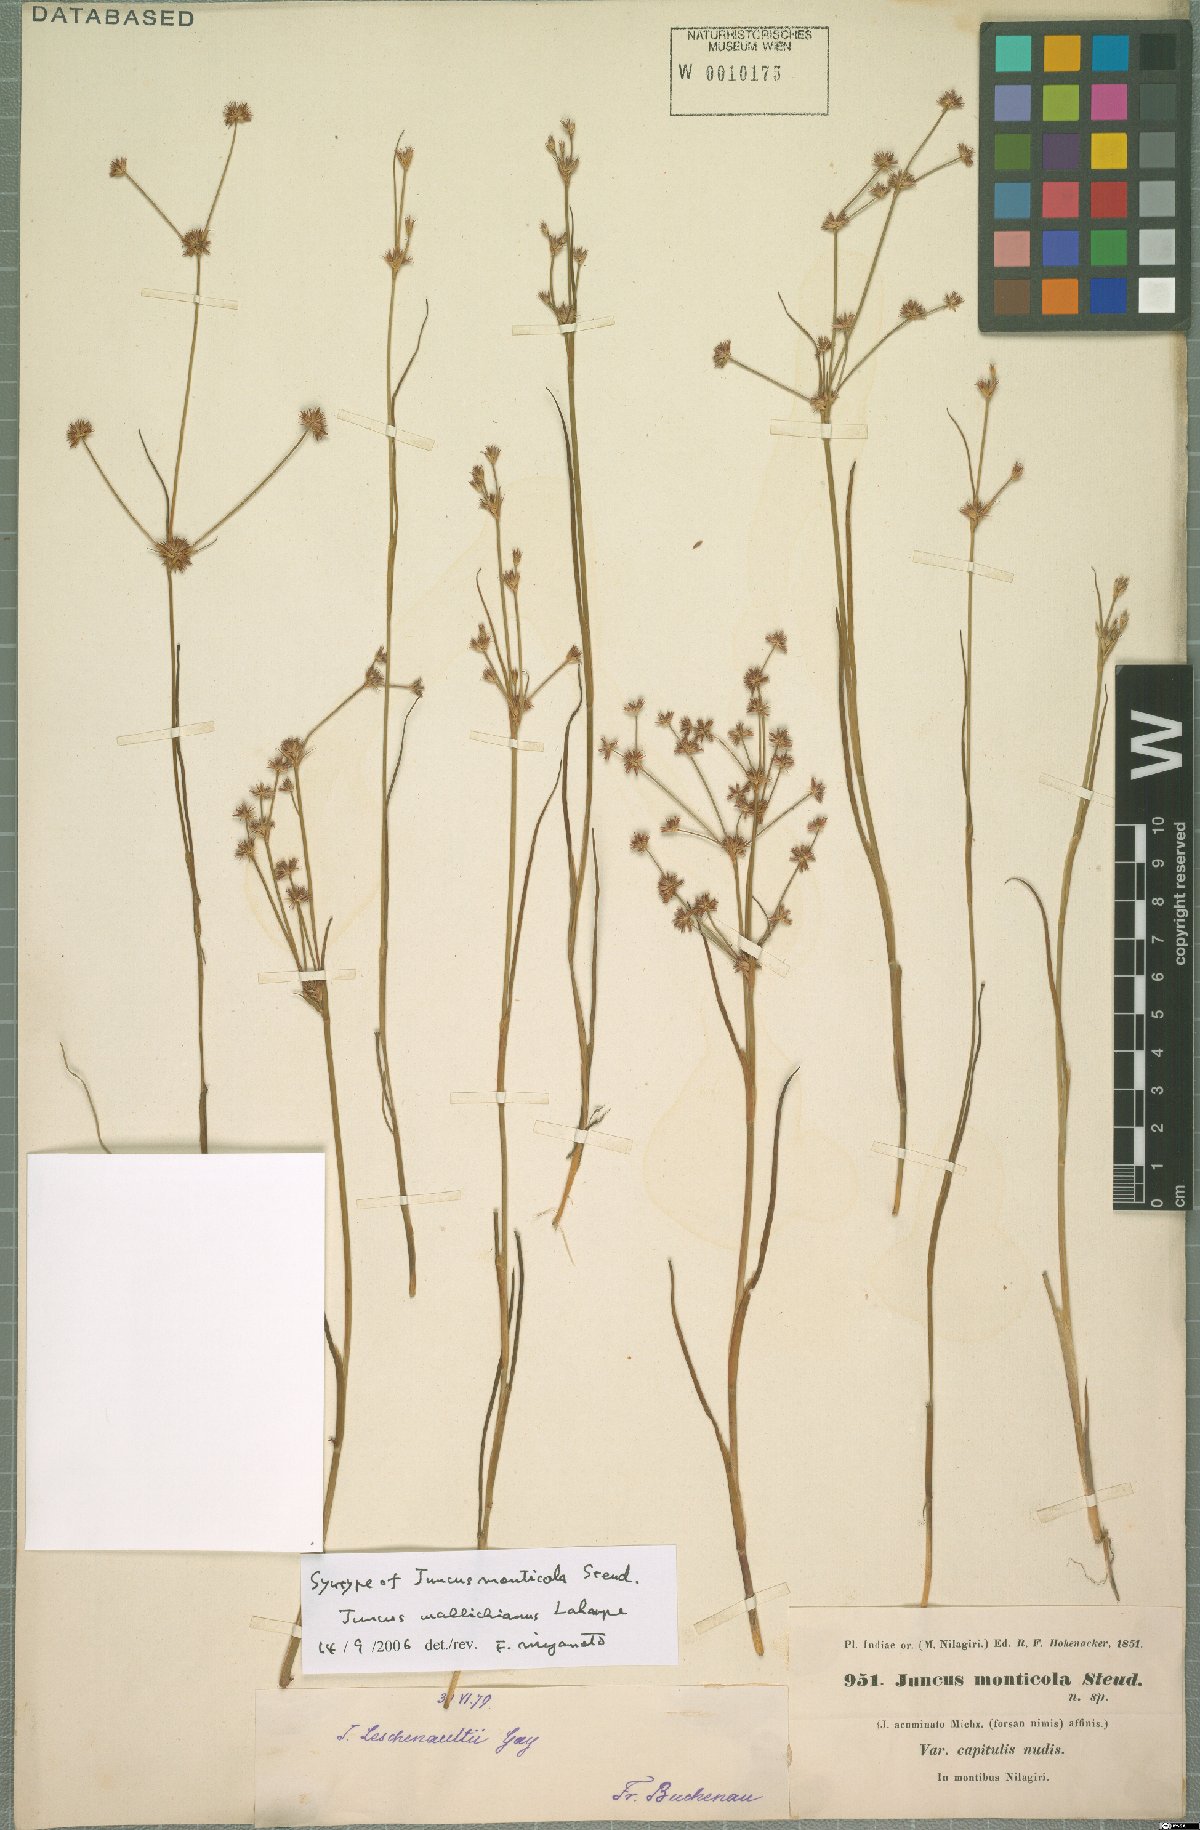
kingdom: Plantae
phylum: Tracheophyta
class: Liliopsida
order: Poales
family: Juncaceae
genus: Juncus
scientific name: Juncus wallichianus
